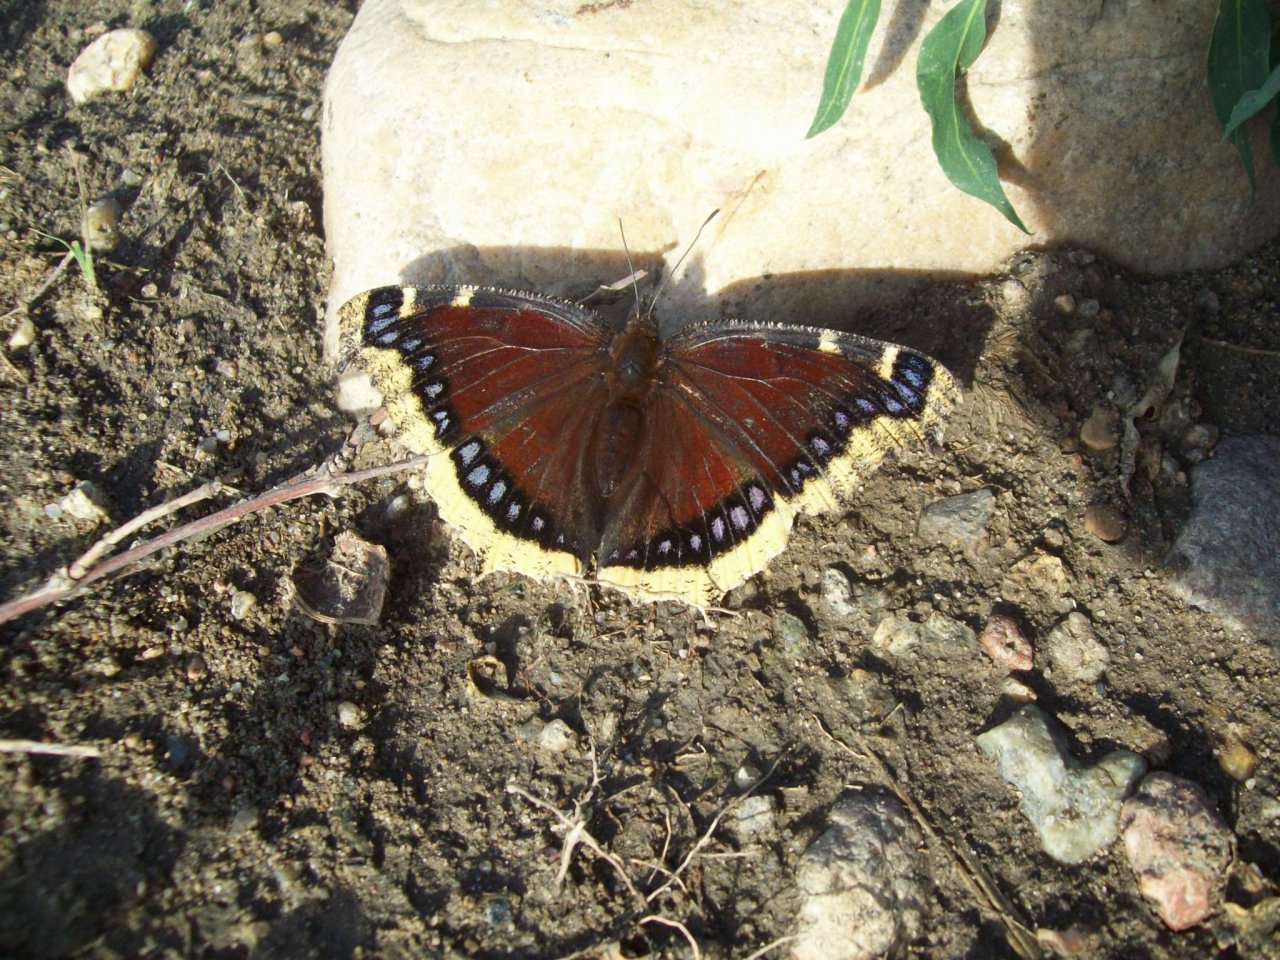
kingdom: Animalia
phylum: Arthropoda
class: Insecta
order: Lepidoptera
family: Nymphalidae
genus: Nymphalis
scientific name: Nymphalis antiopa
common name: Mourning Cloak
